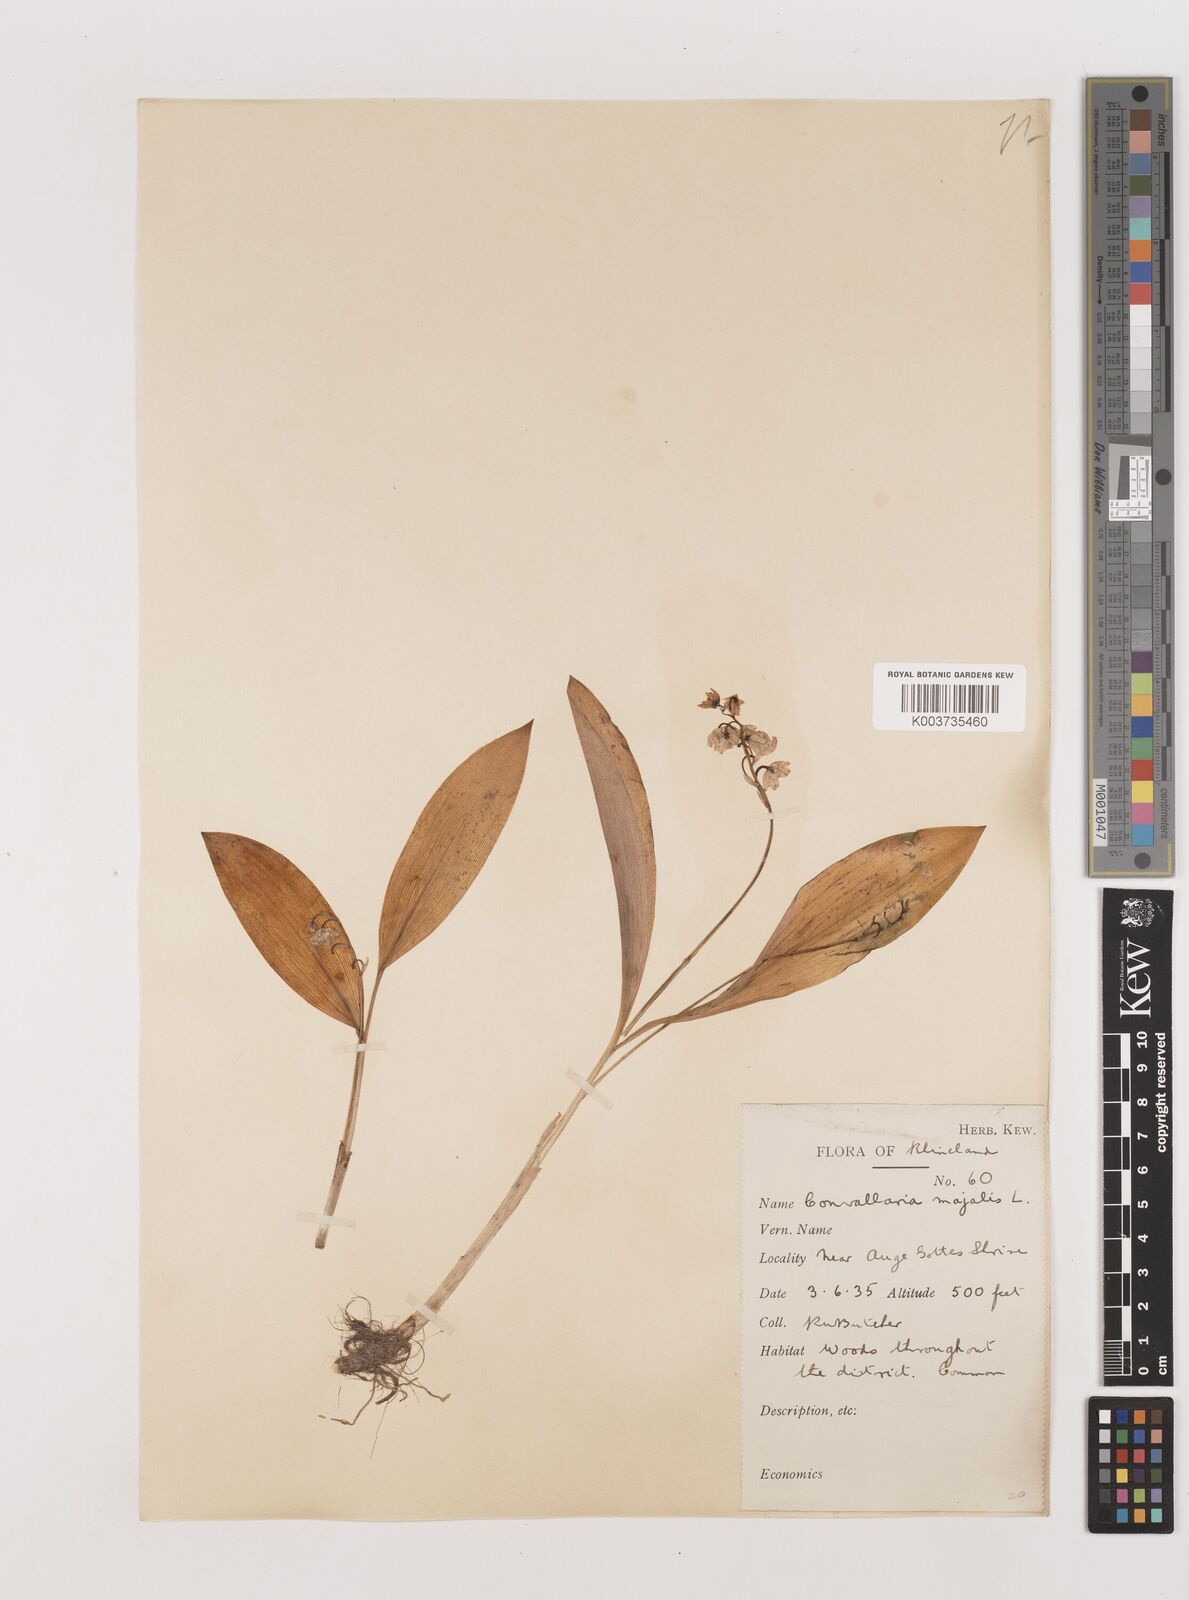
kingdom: Plantae
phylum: Tracheophyta
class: Liliopsida
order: Asparagales
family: Asparagaceae
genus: Convallaria
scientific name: Convallaria majalis
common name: Lily-of-the-valley
